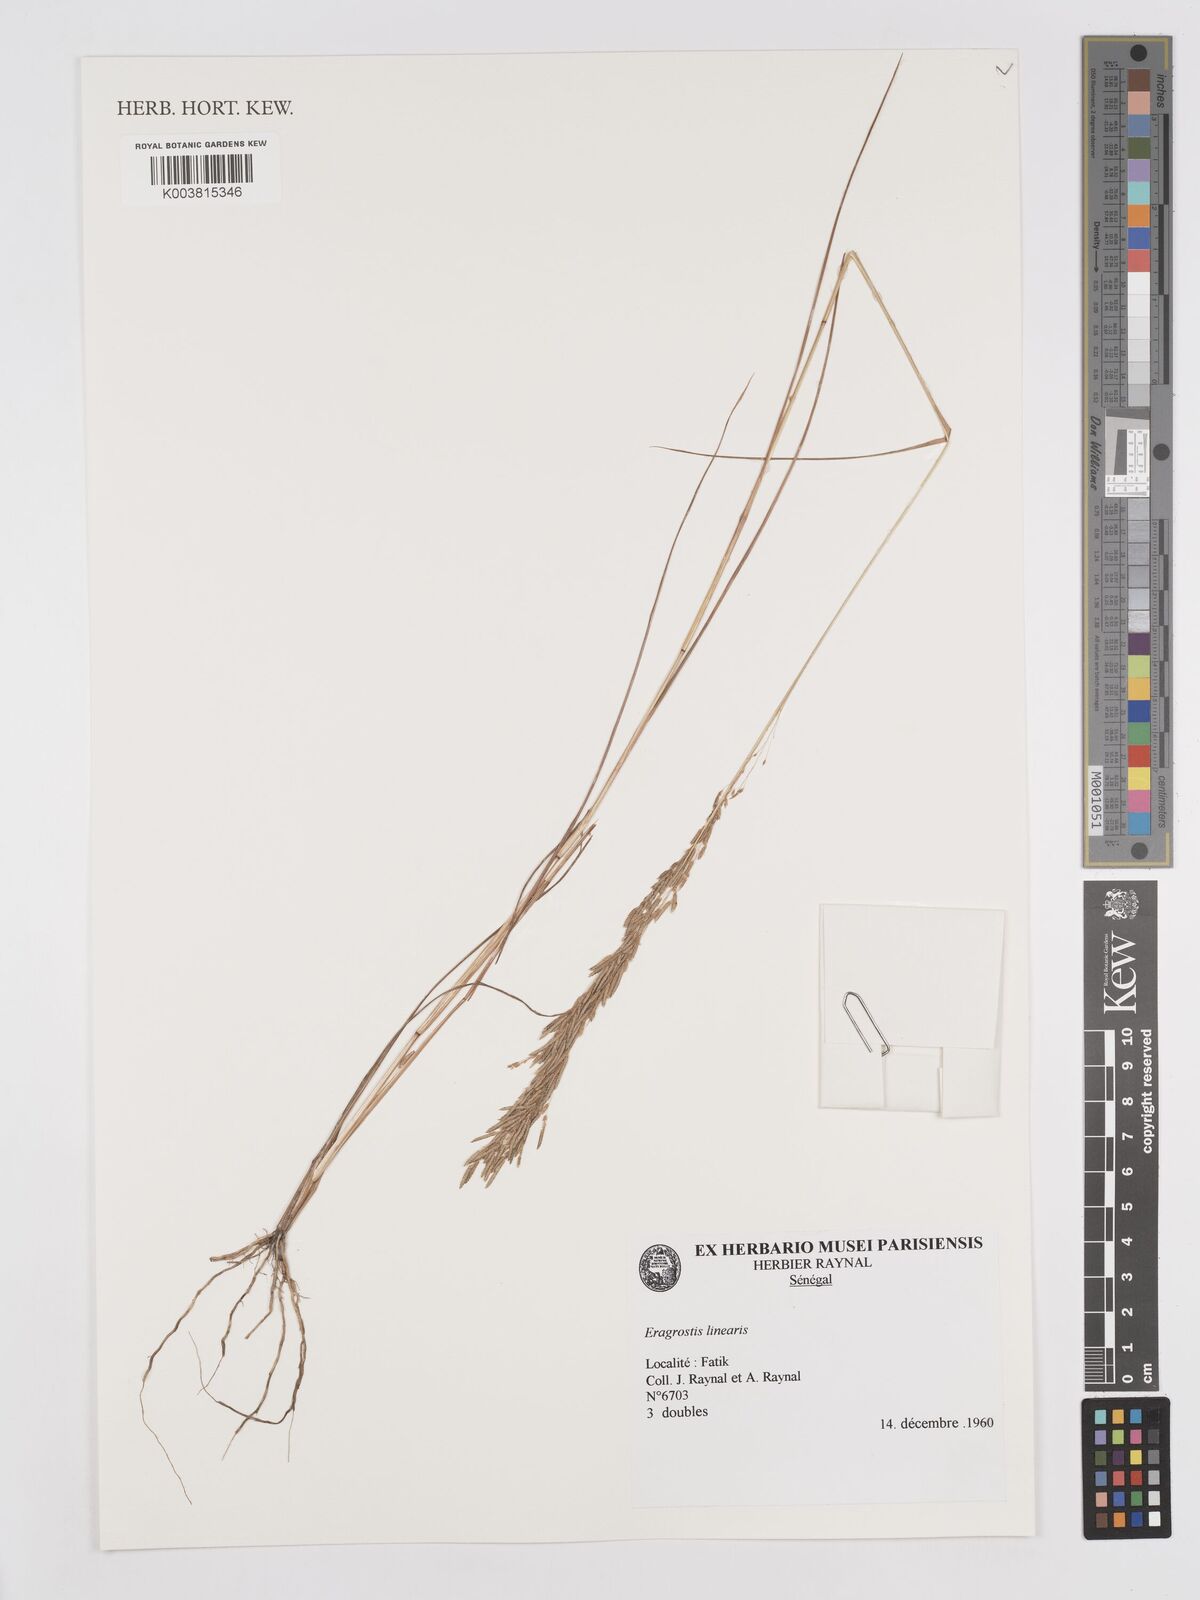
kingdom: Plantae
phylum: Tracheophyta
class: Liliopsida
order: Poales
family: Poaceae
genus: Eragrostis
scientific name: Eragrostis barrelieri
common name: Mediterranean lovegrass
